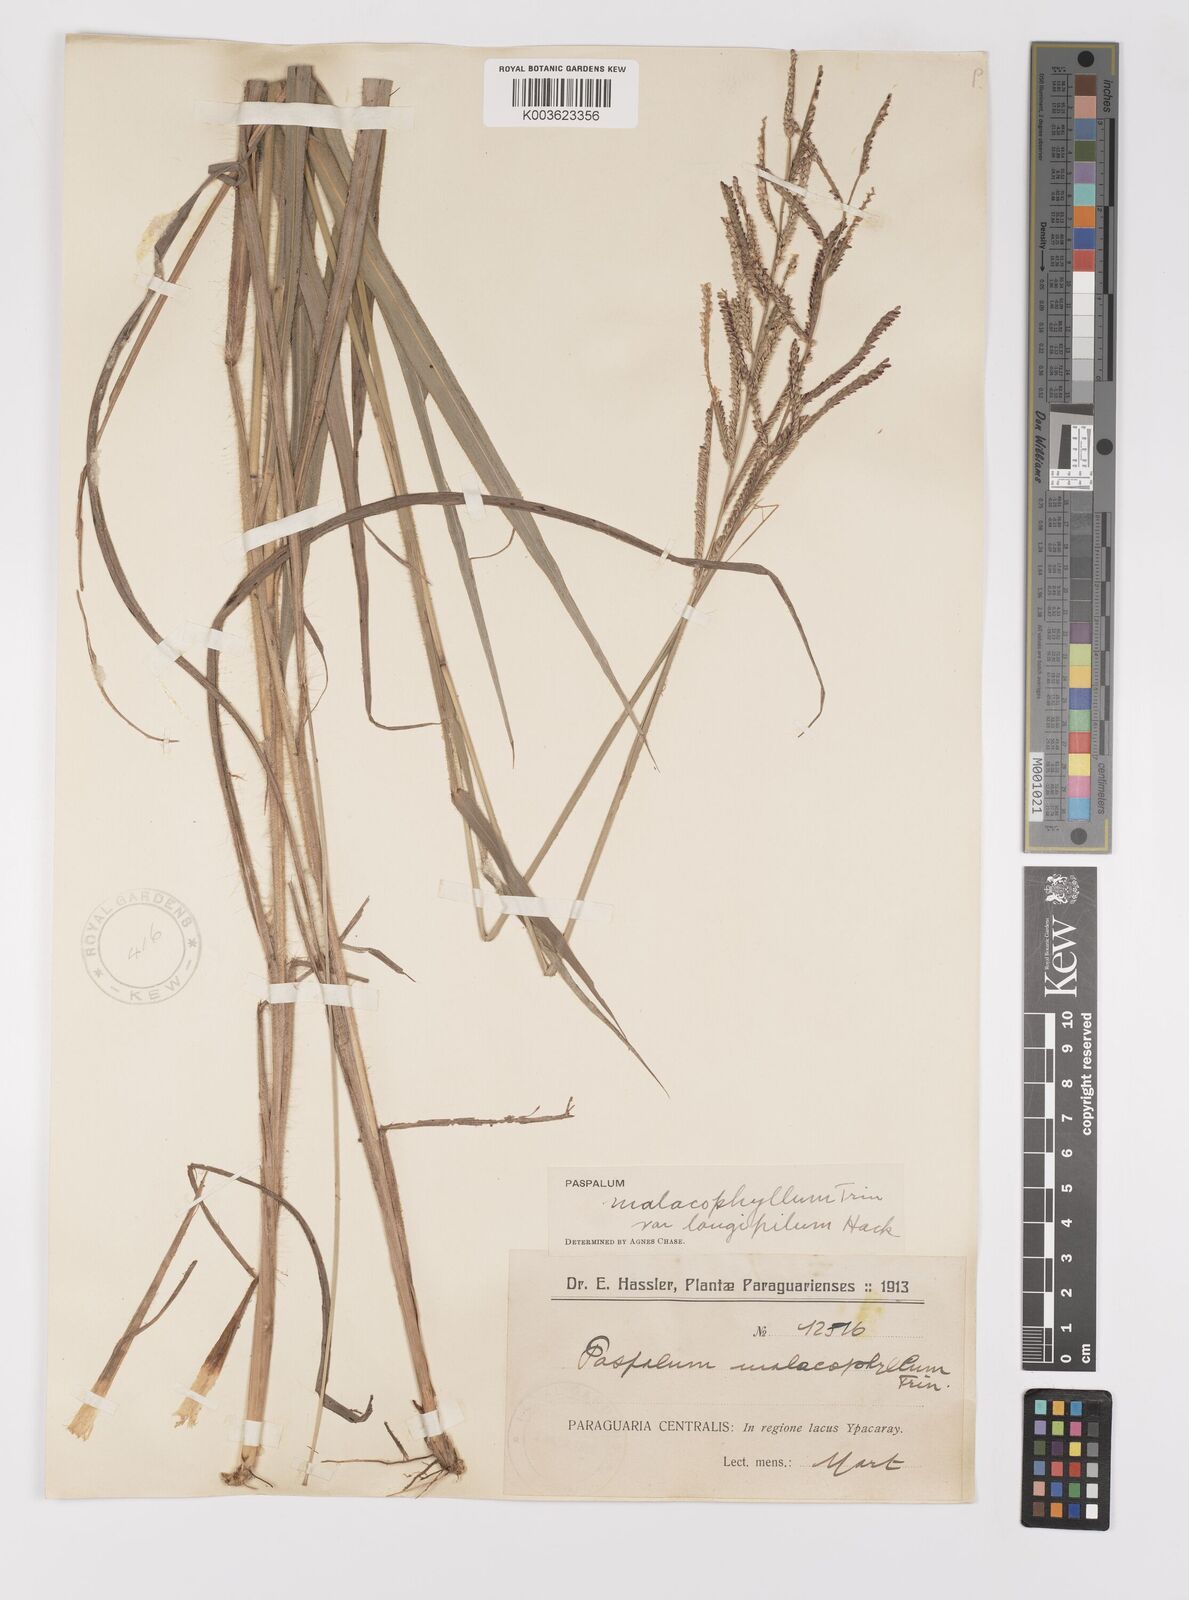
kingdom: Plantae
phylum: Tracheophyta
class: Liliopsida
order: Poales
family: Poaceae
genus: Paspalum
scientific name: Paspalum malacophyllum
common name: Ribbed paspalum
